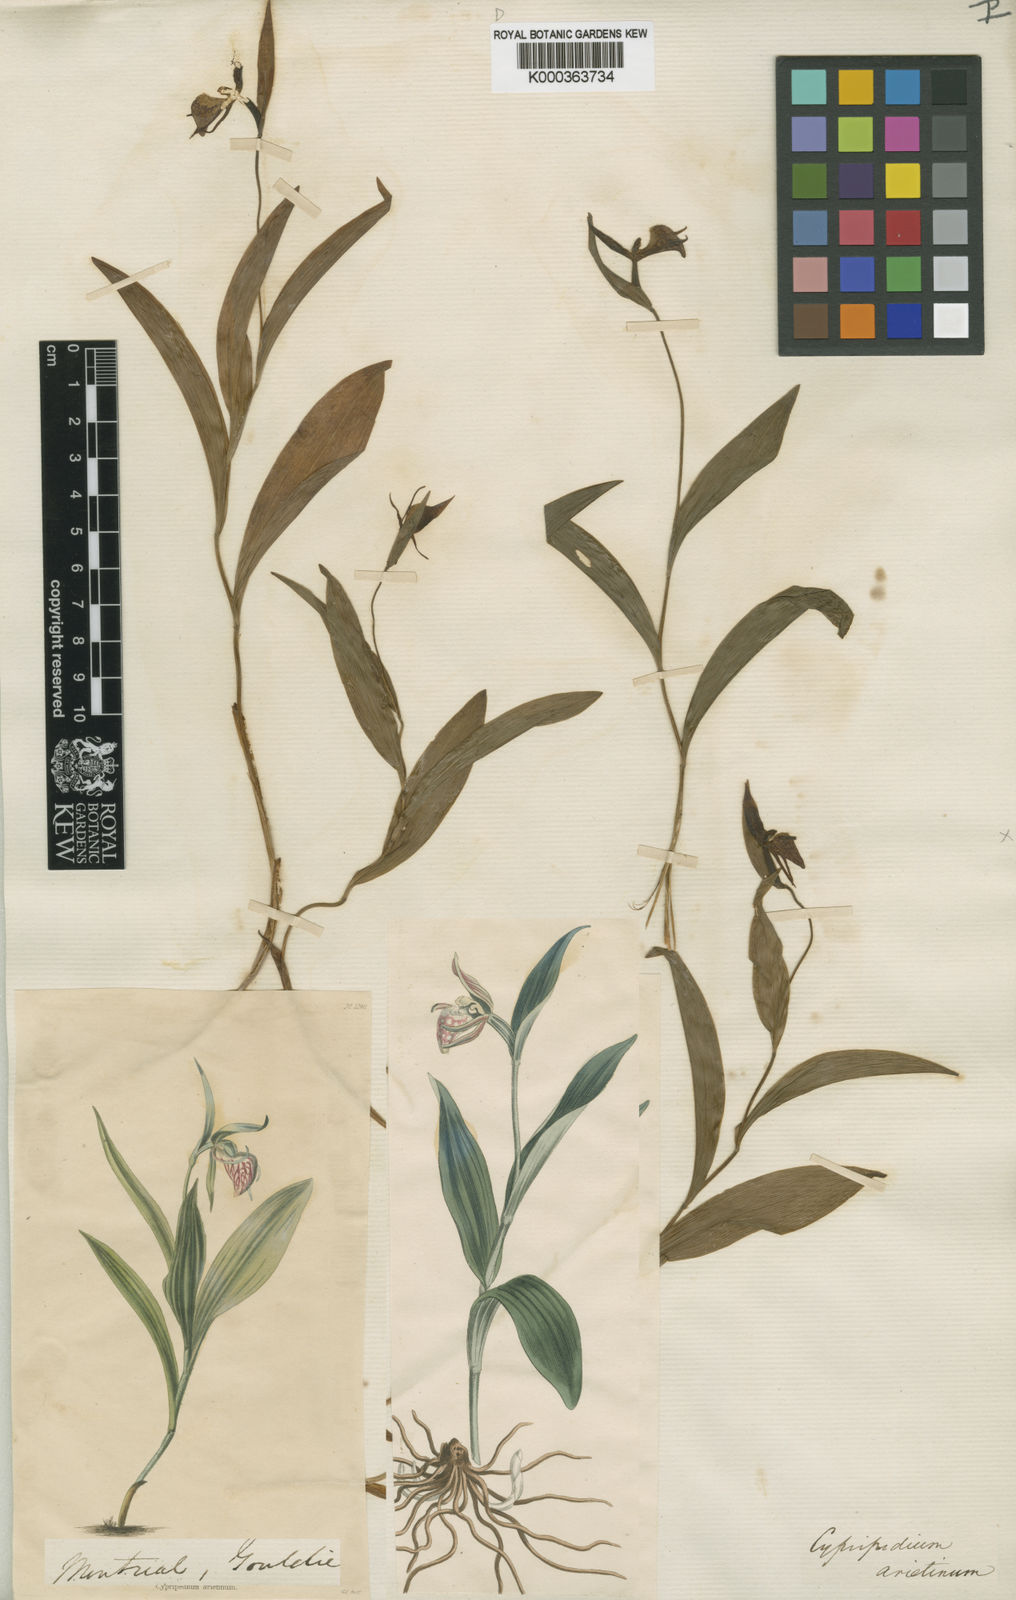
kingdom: Plantae
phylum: Tracheophyta
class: Liliopsida
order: Asparagales
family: Orchidaceae
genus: Cypripedium
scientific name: Cypripedium arietinum
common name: Ram's-head
